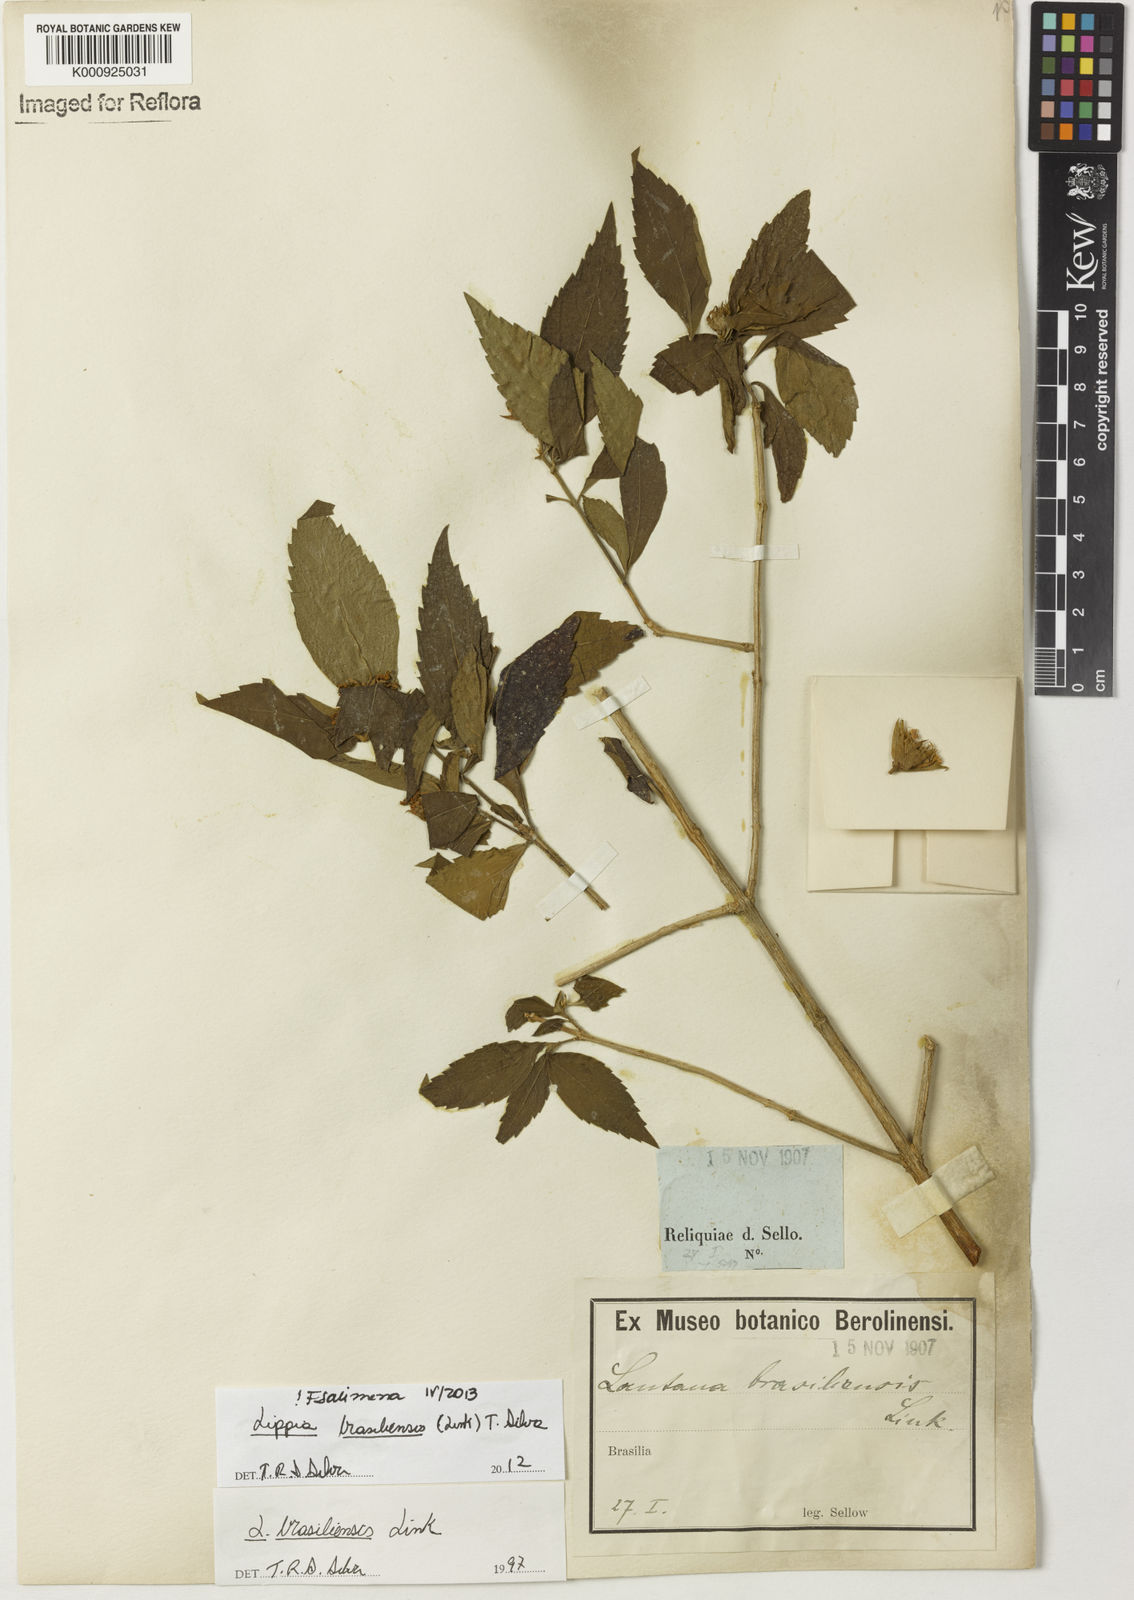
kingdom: Plantae
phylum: Tracheophyta
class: Magnoliopsida
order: Lamiales
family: Verbenaceae
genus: Lippia
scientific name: Lippia brasiliensis
